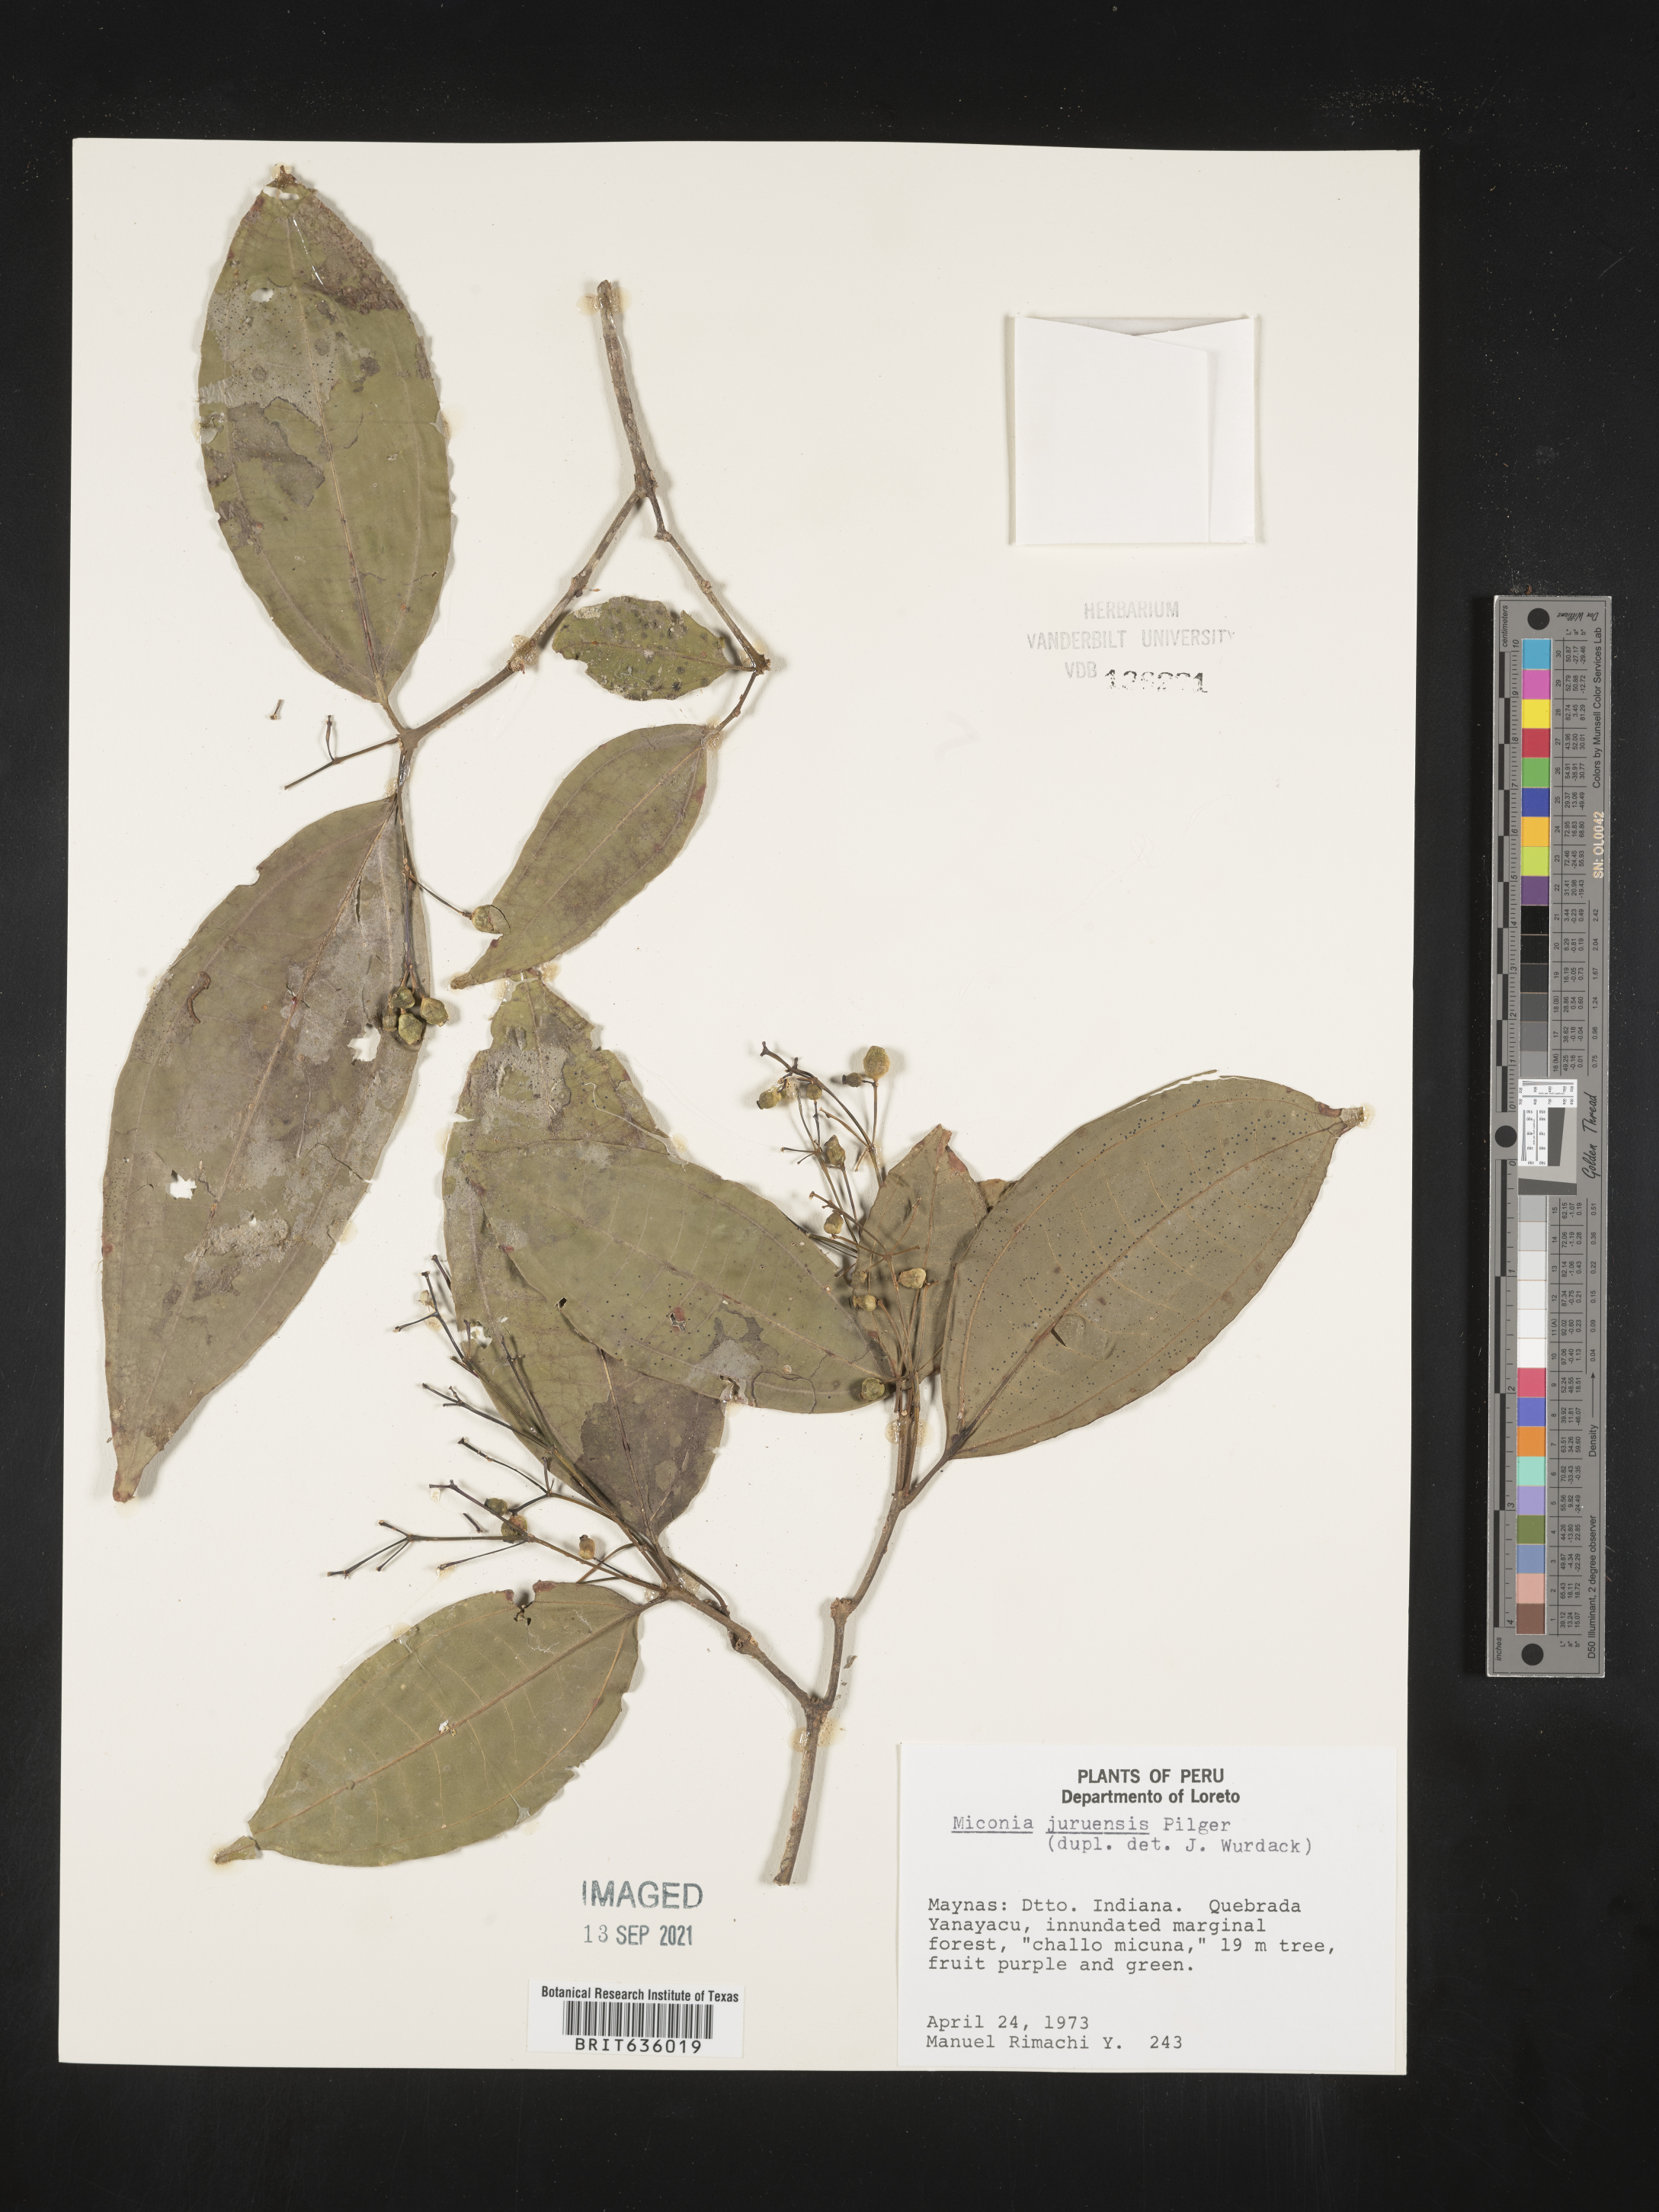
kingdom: Plantae
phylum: Tracheophyta
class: Magnoliopsida
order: Myrtales
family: Melastomataceae
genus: Miconia
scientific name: Miconia
